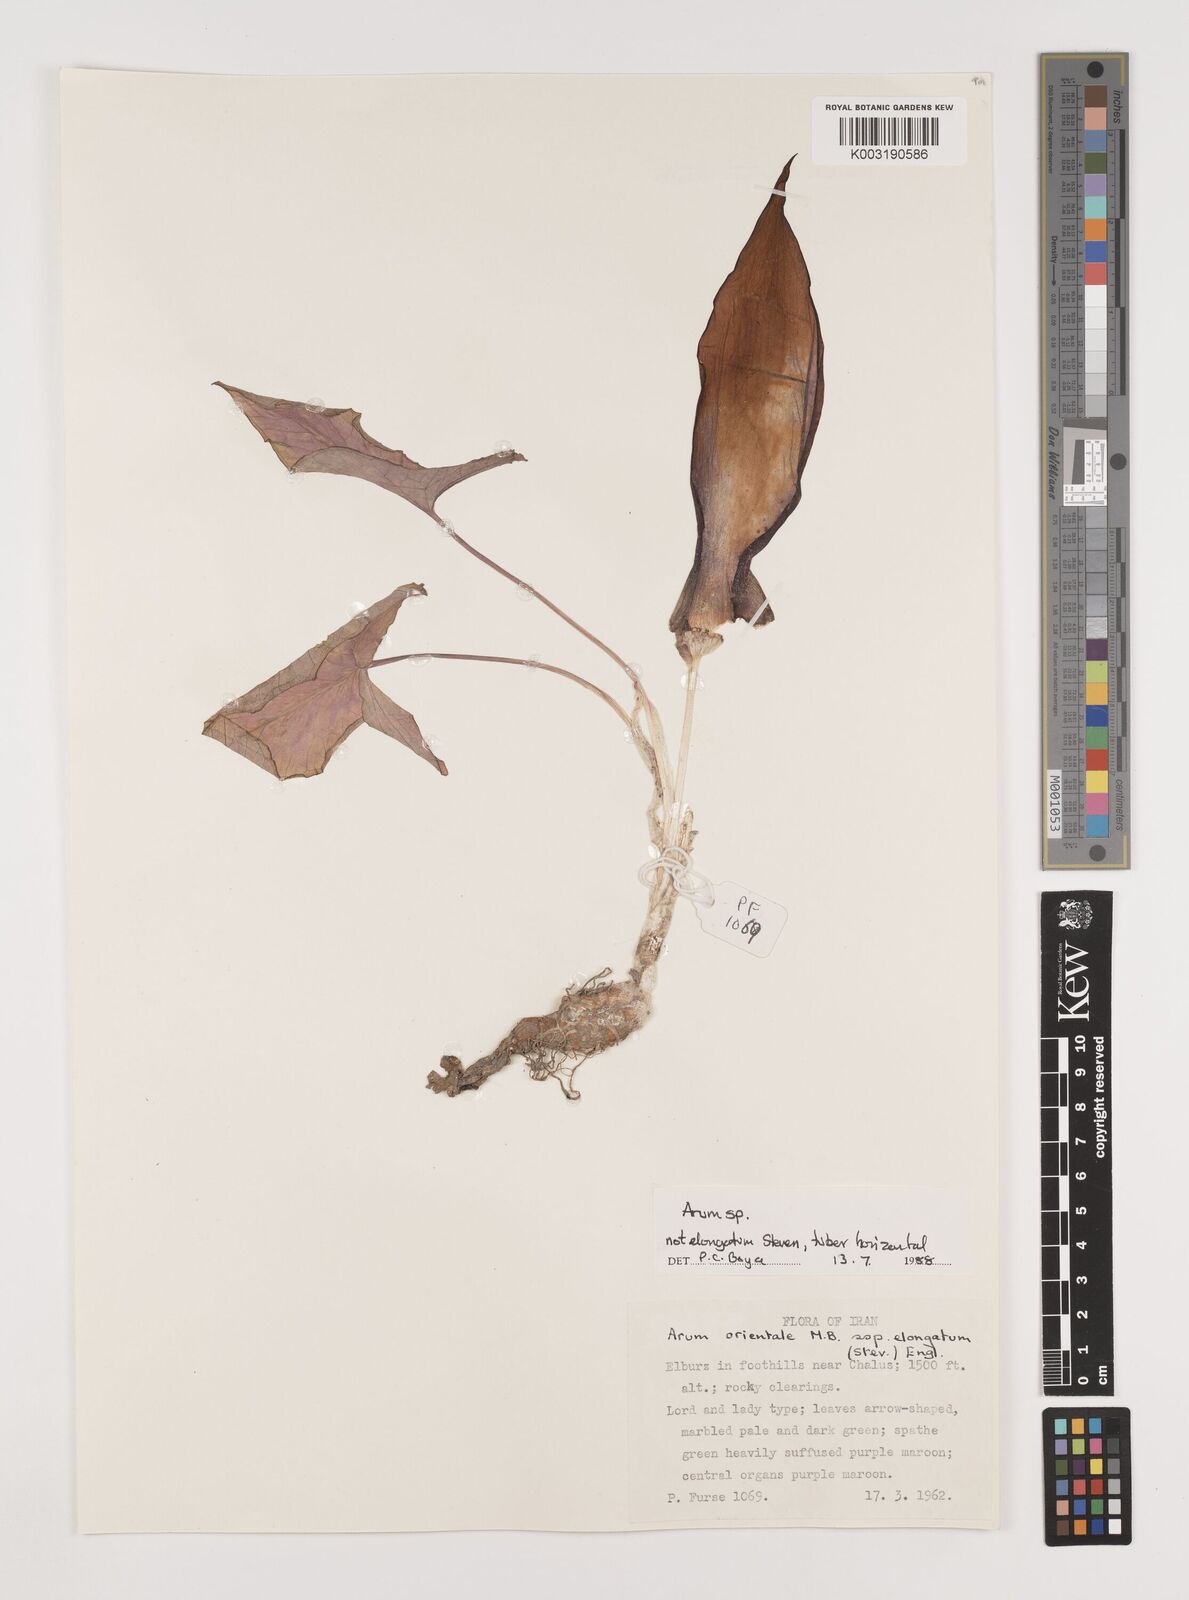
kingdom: Plantae
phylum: Tracheophyta
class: Liliopsida
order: Alismatales
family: Araceae
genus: Arum
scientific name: Arum
